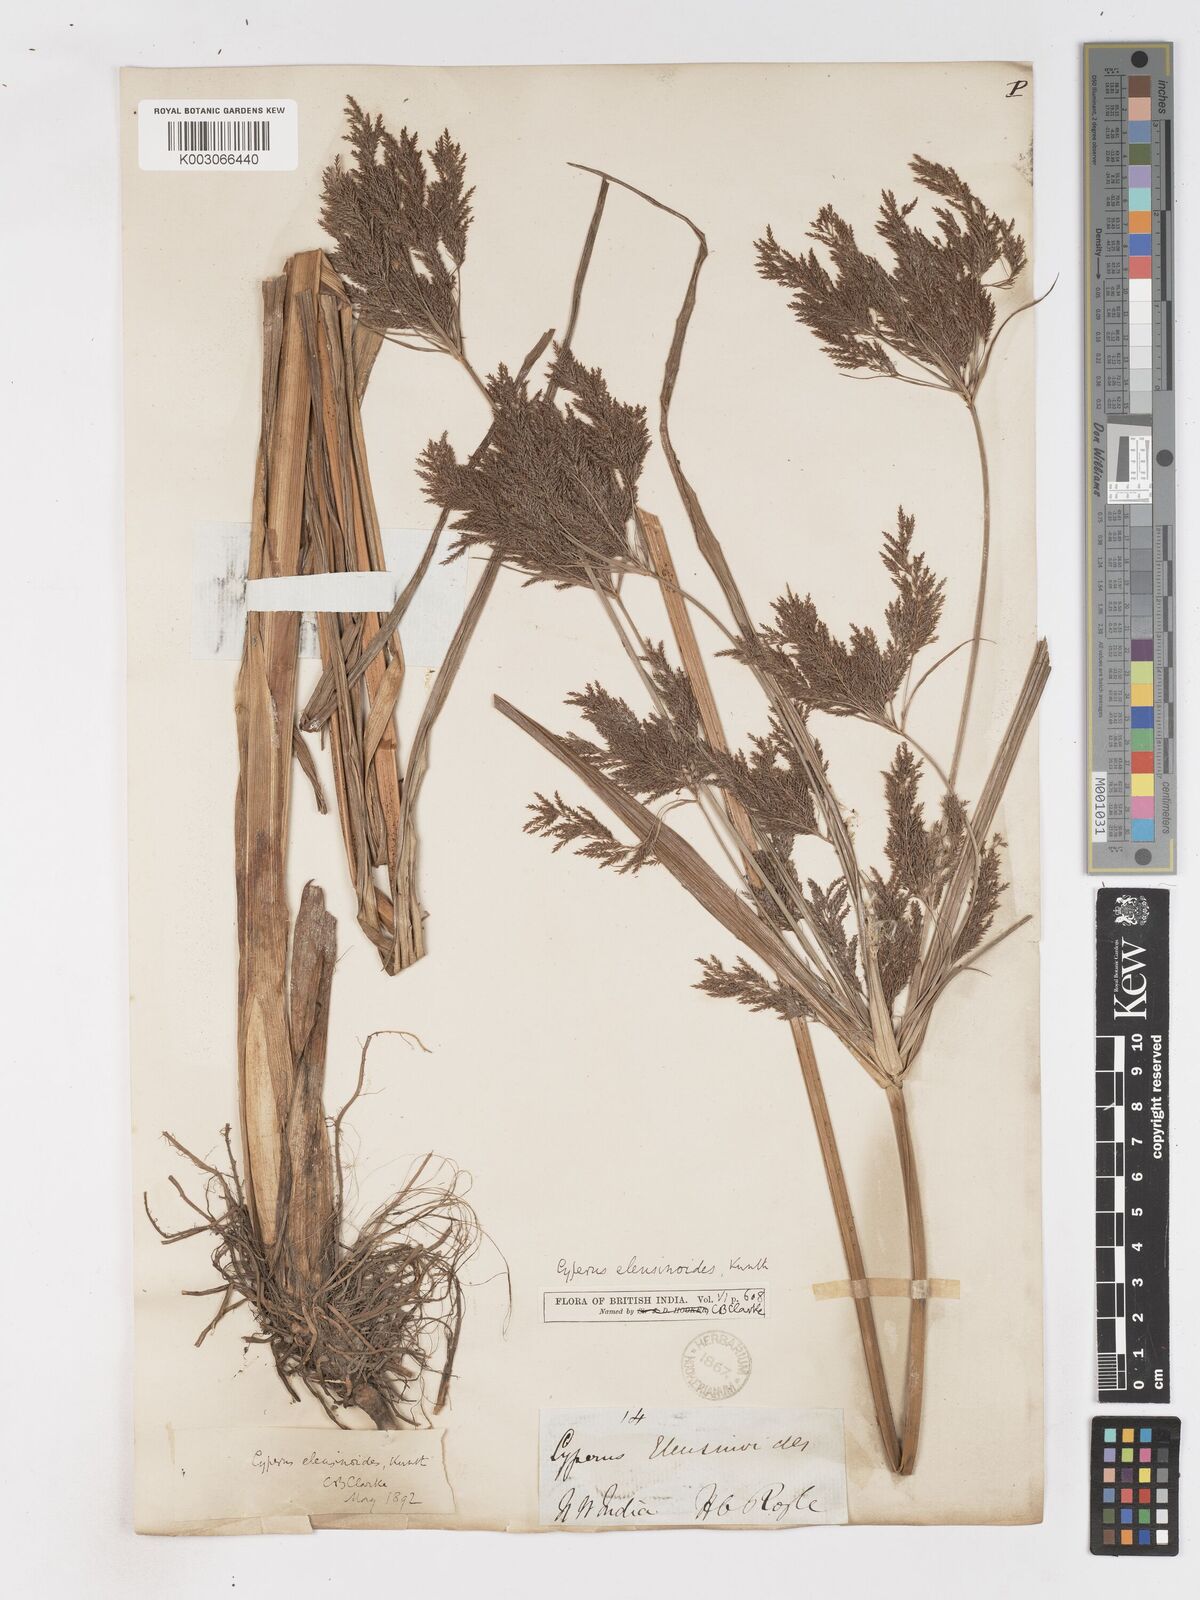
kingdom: Plantae
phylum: Tracheophyta
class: Liliopsida
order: Poales
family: Cyperaceae
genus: Cyperus
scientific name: Cyperus nutans
